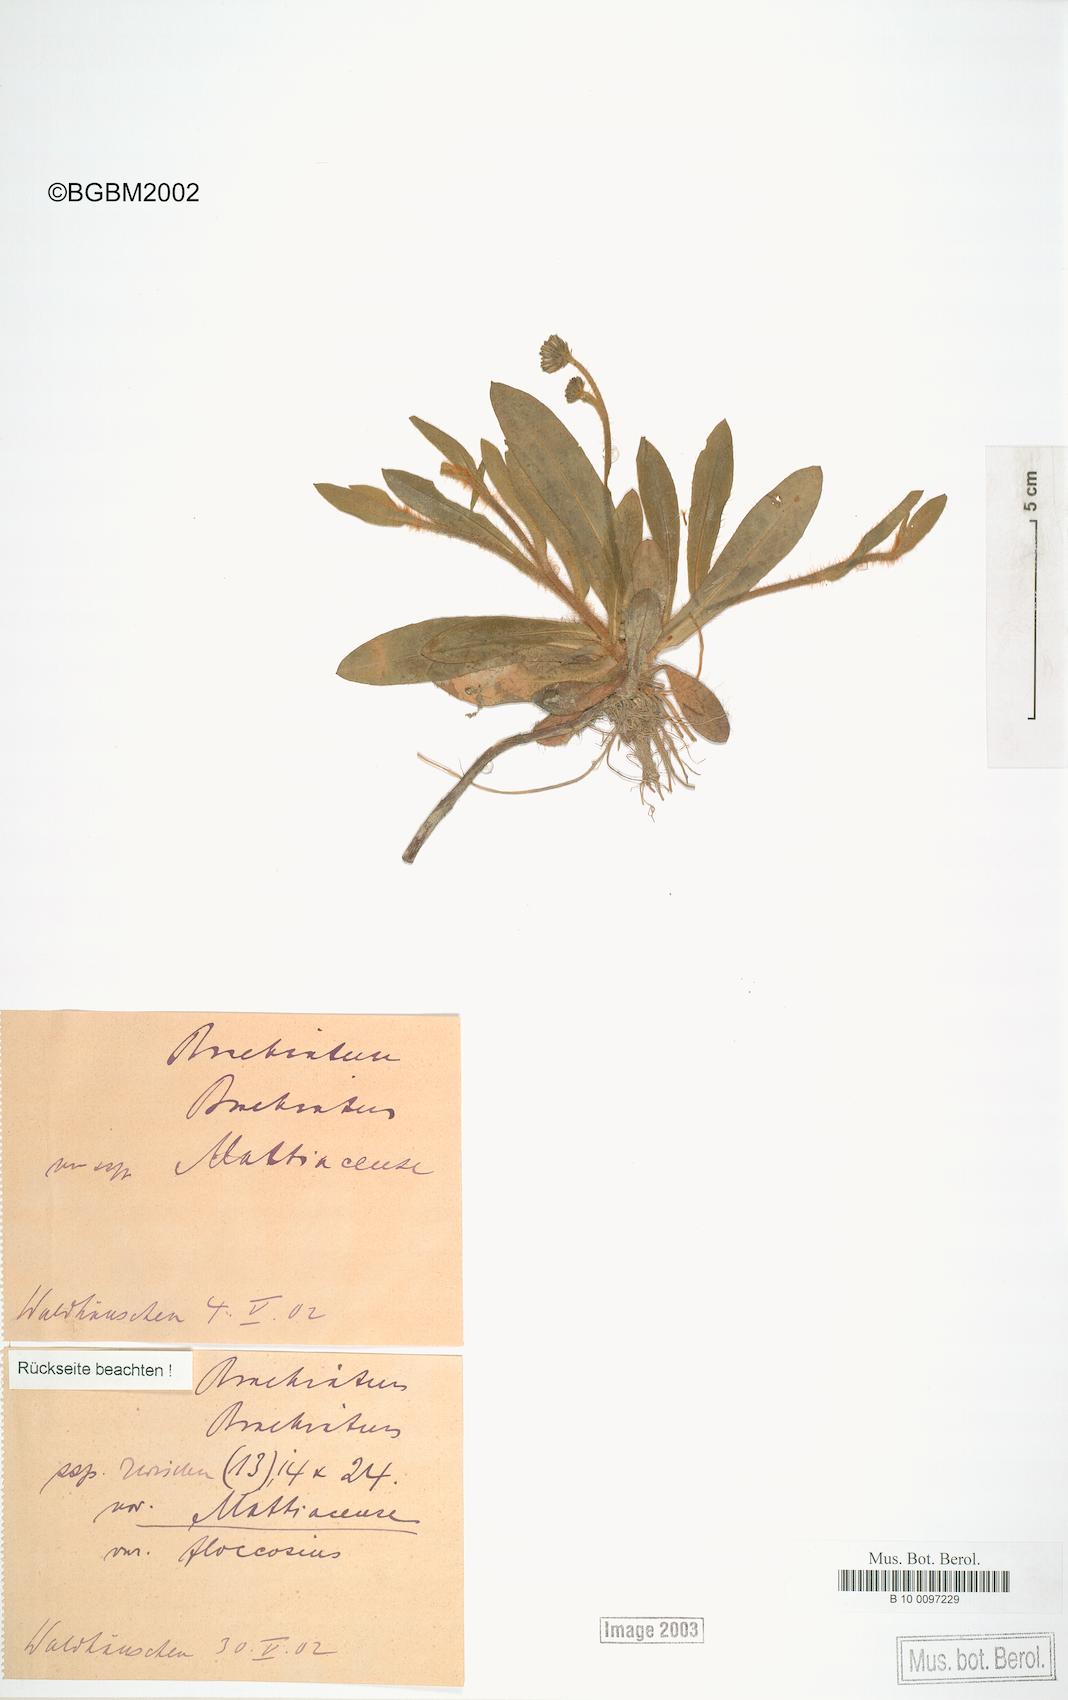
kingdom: Plantae
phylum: Tracheophyta
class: Magnoliopsida
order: Asterales
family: Asteraceae
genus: Pilosella
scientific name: Pilosella acutifolia
